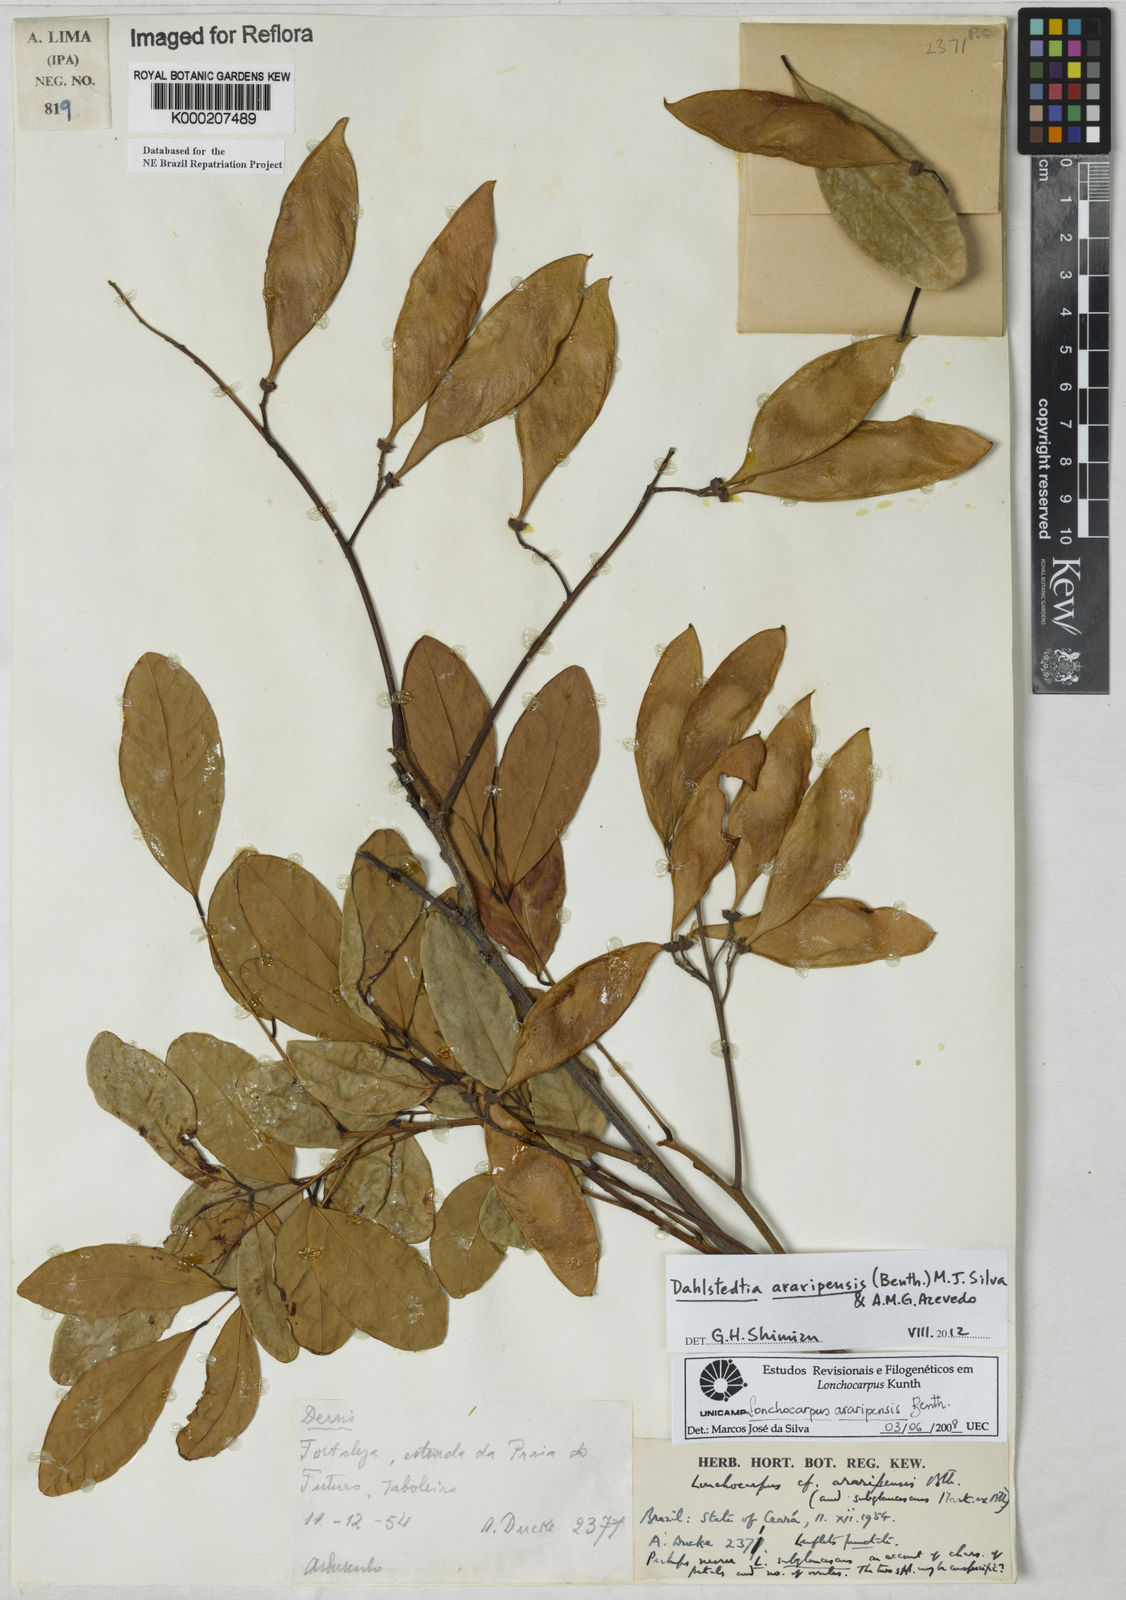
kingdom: Plantae
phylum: Tracheophyta
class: Magnoliopsida
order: Fabales
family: Fabaceae
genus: Dahlstedtia
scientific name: Dahlstedtia araripensis
